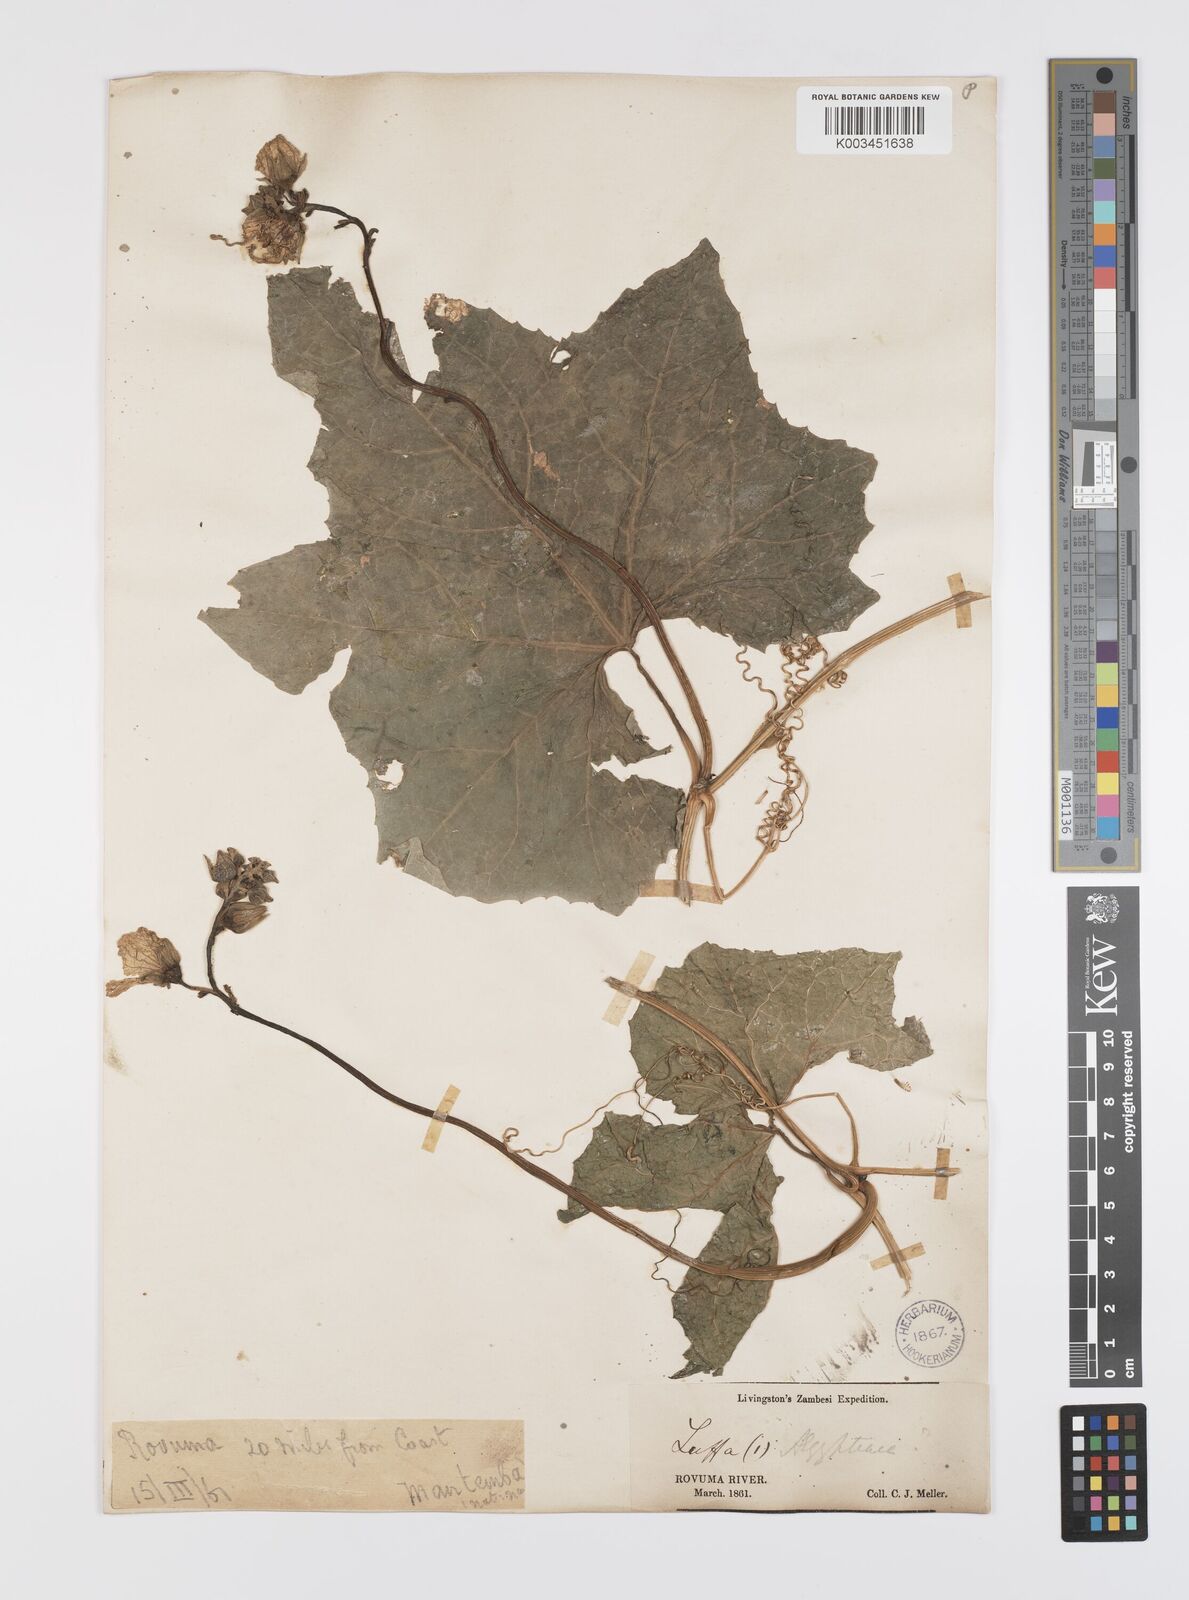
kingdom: Plantae
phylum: Tracheophyta
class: Magnoliopsida
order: Cucurbitales
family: Cucurbitaceae
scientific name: Cucurbitaceae
